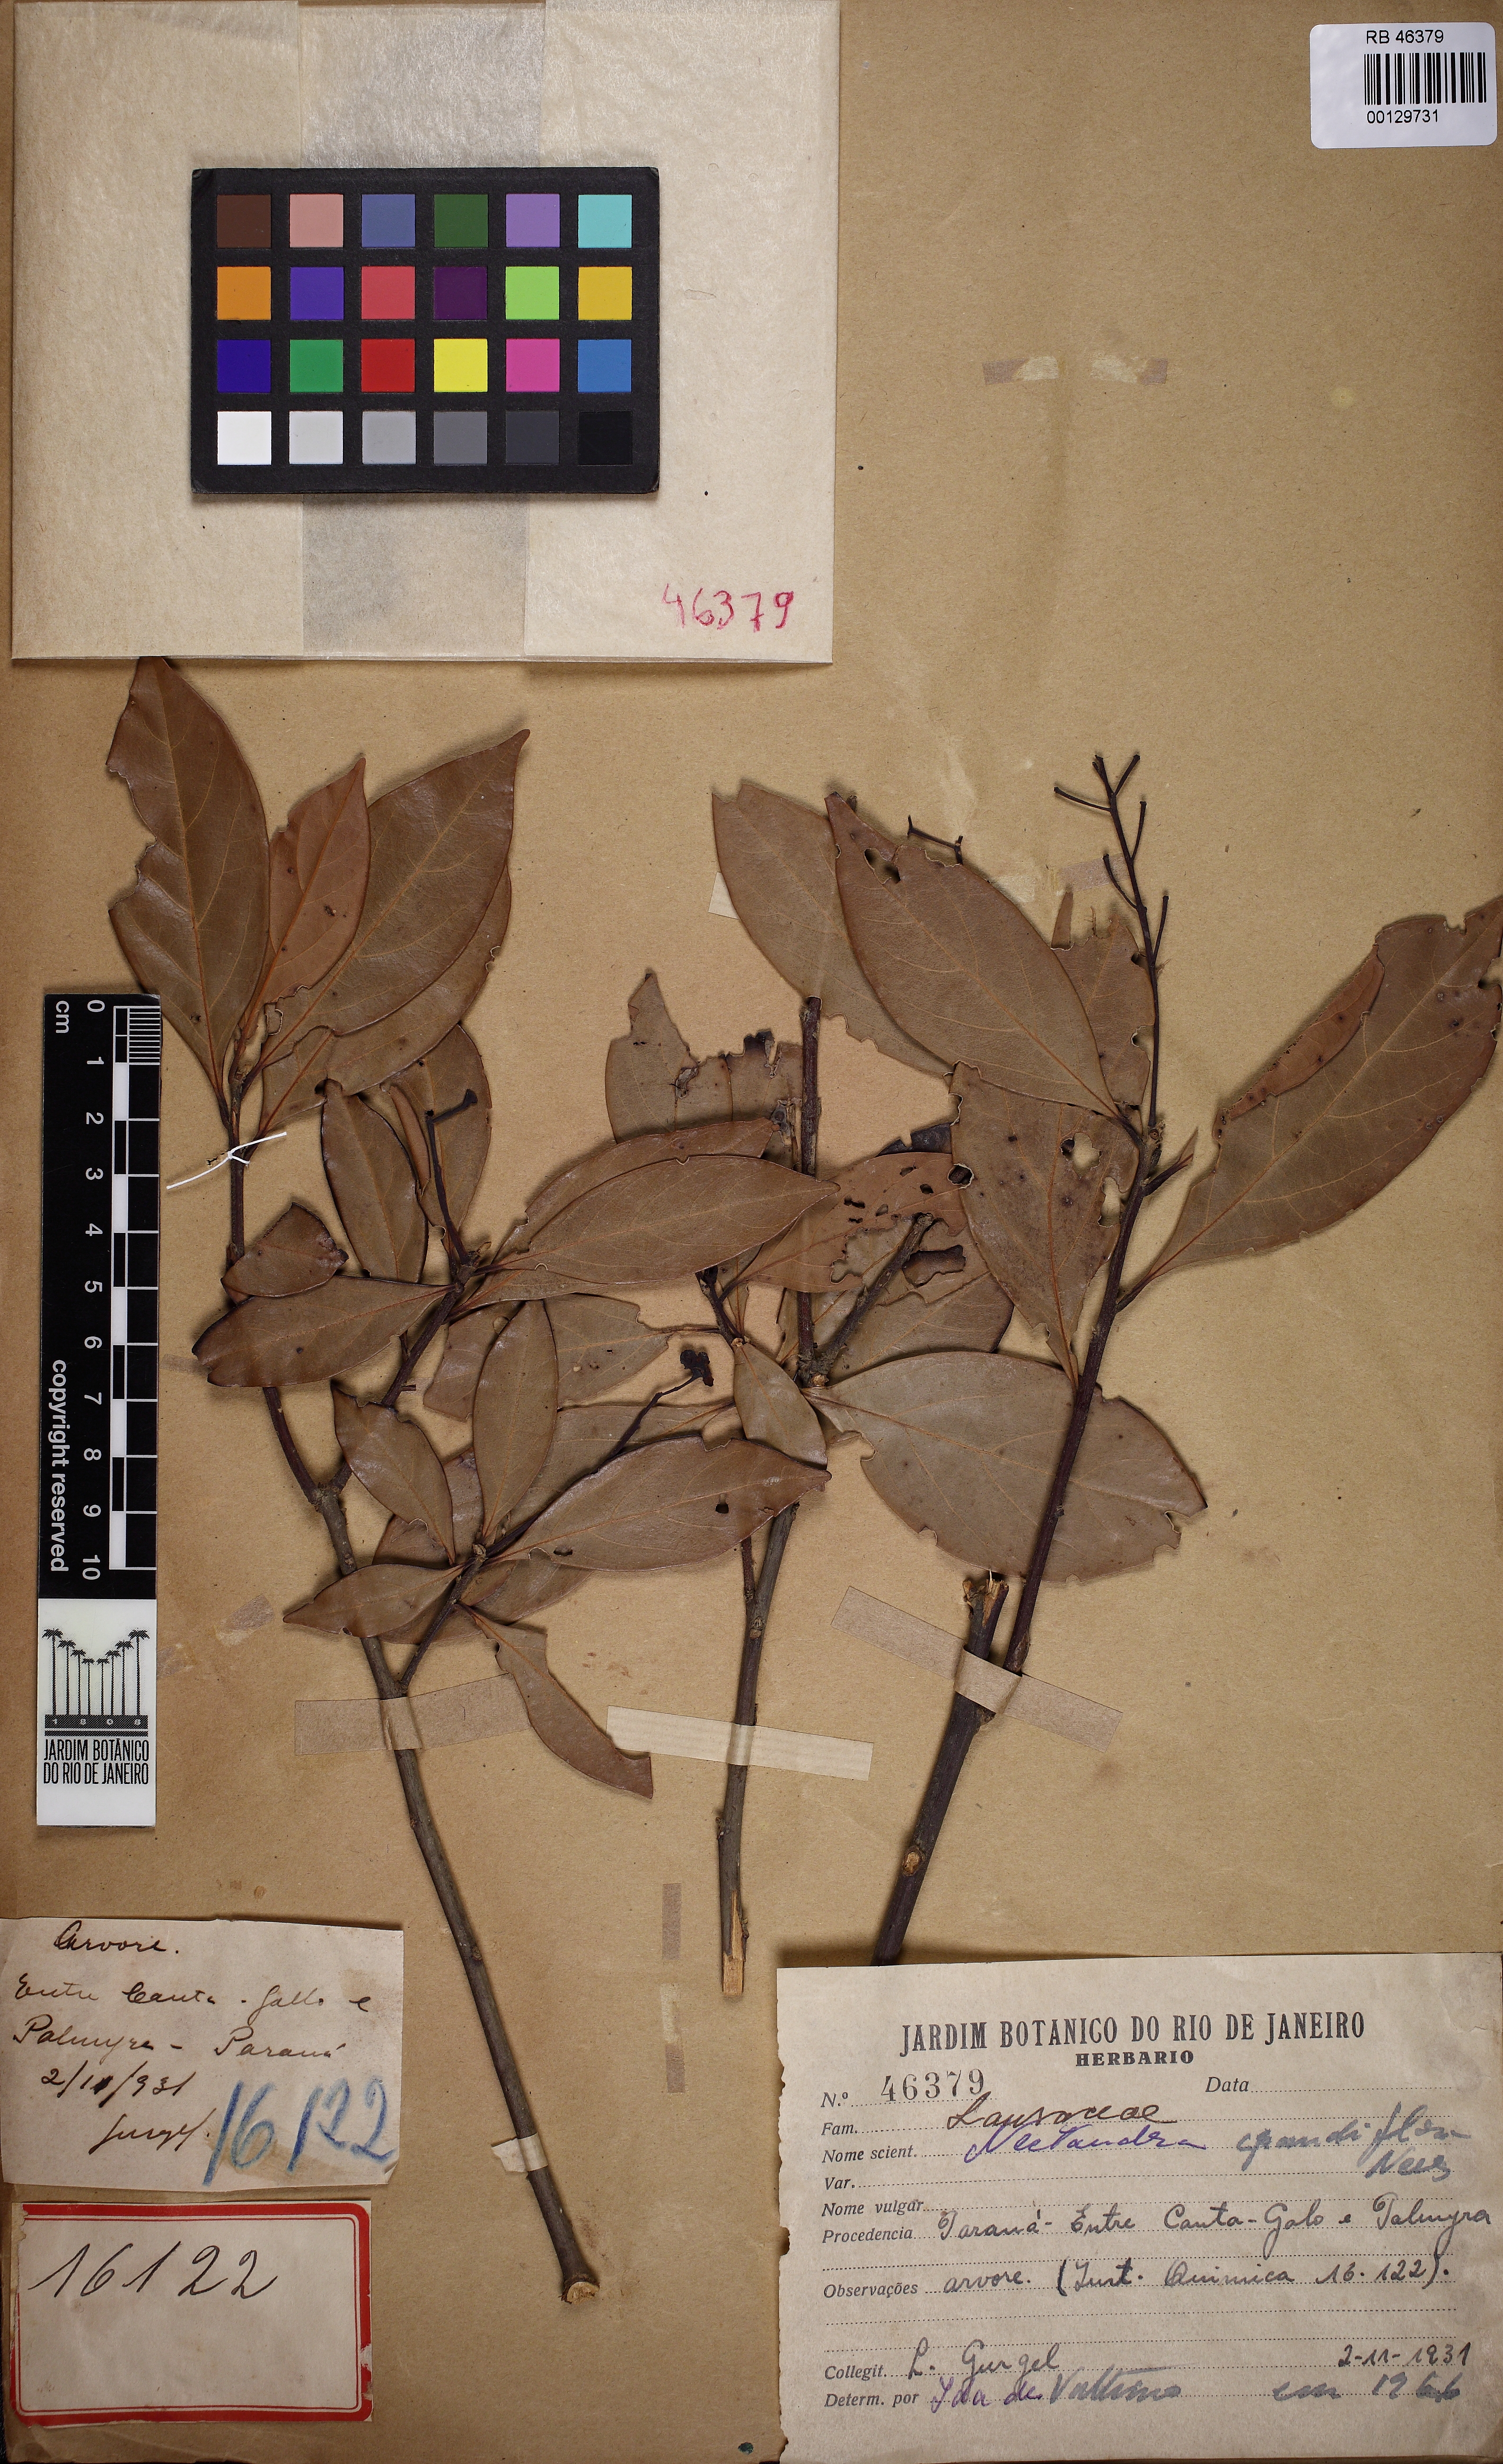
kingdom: Plantae
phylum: Tracheophyta
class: Magnoliopsida
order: Laurales
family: Lauraceae
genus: Nectandra
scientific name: Nectandra grandiflora
